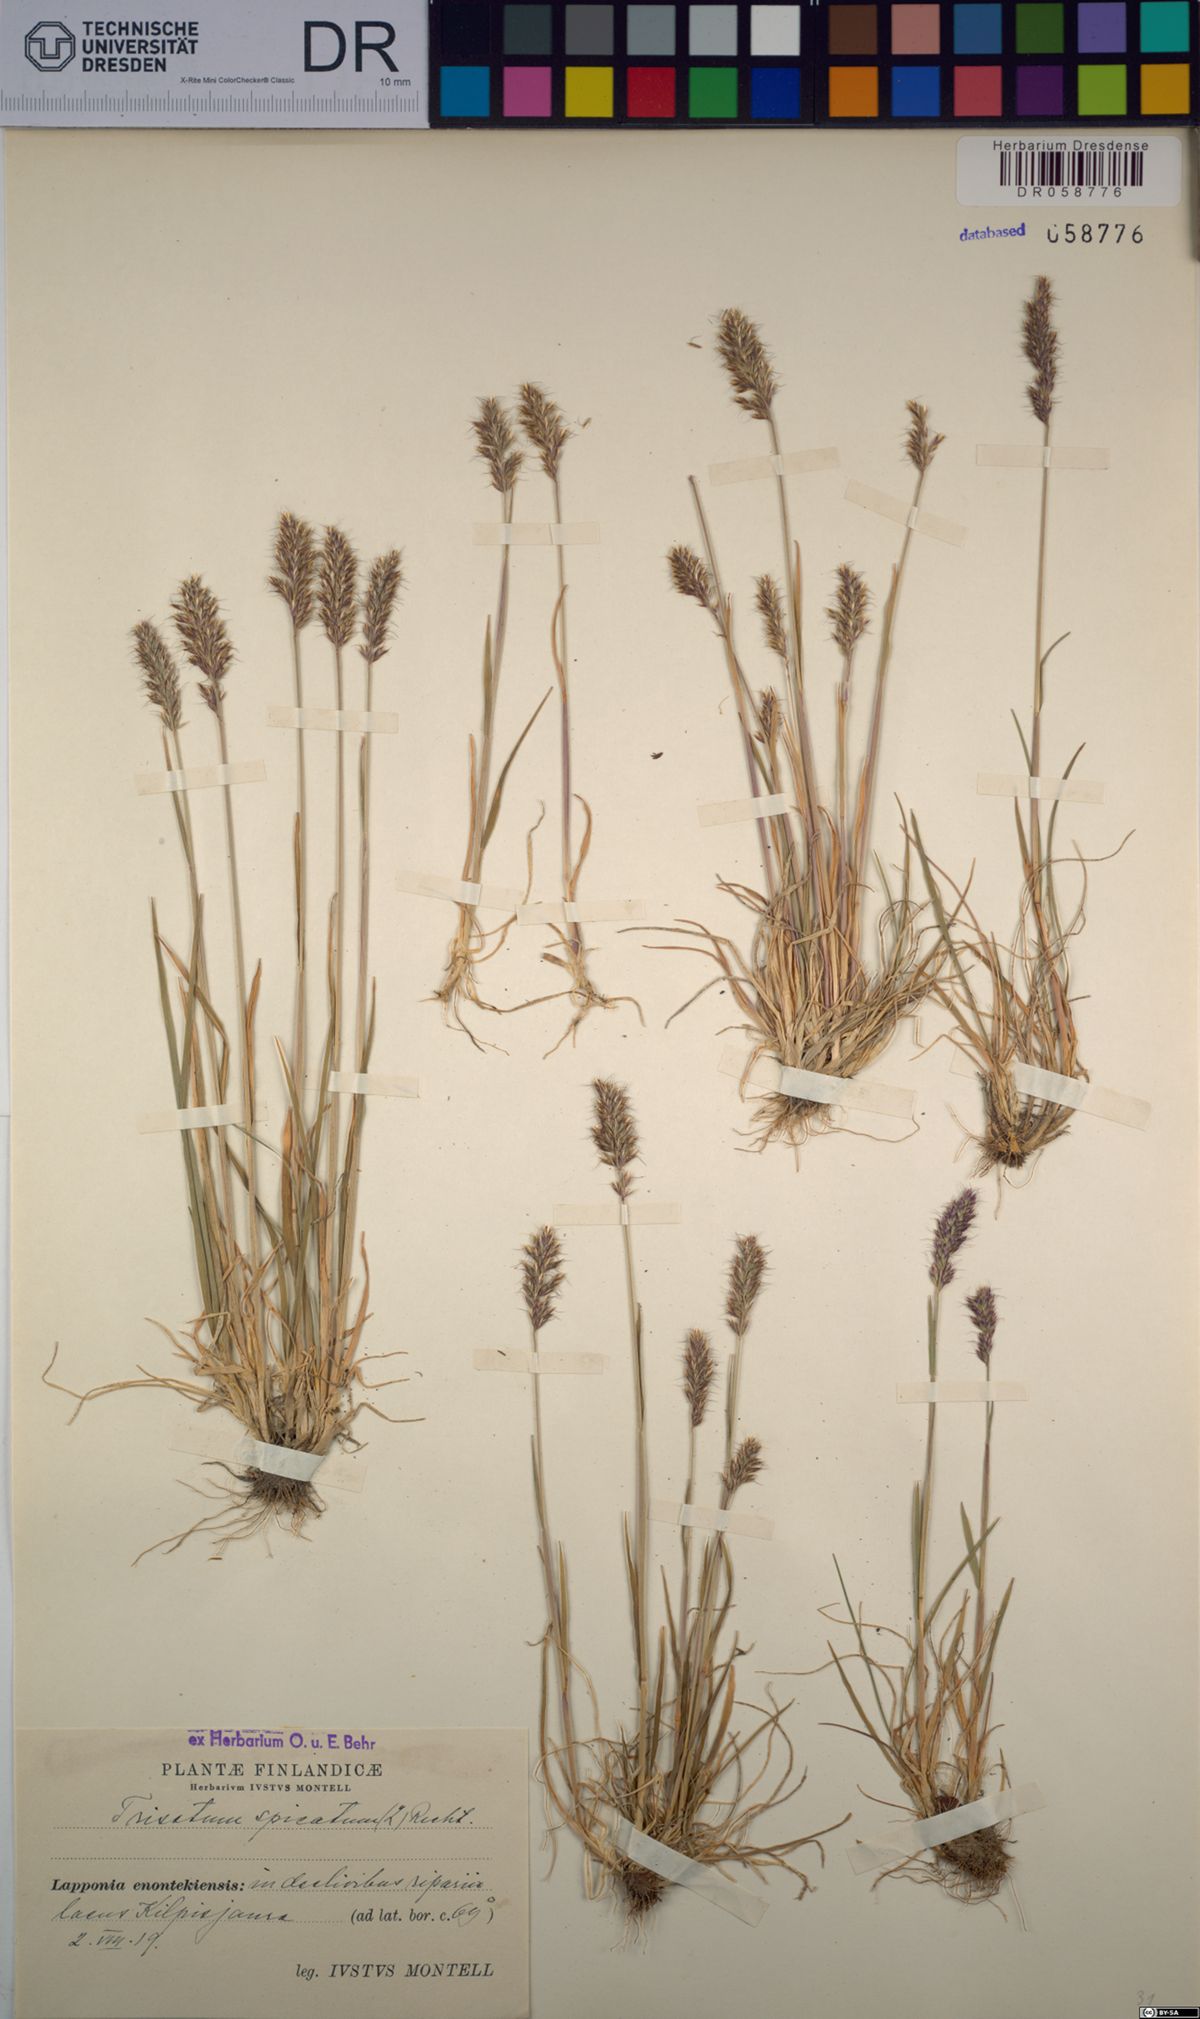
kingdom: Plantae
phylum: Tracheophyta
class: Liliopsida
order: Poales
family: Poaceae
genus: Koeleria
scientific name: Koeleria spicata
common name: Mountain trisetum
